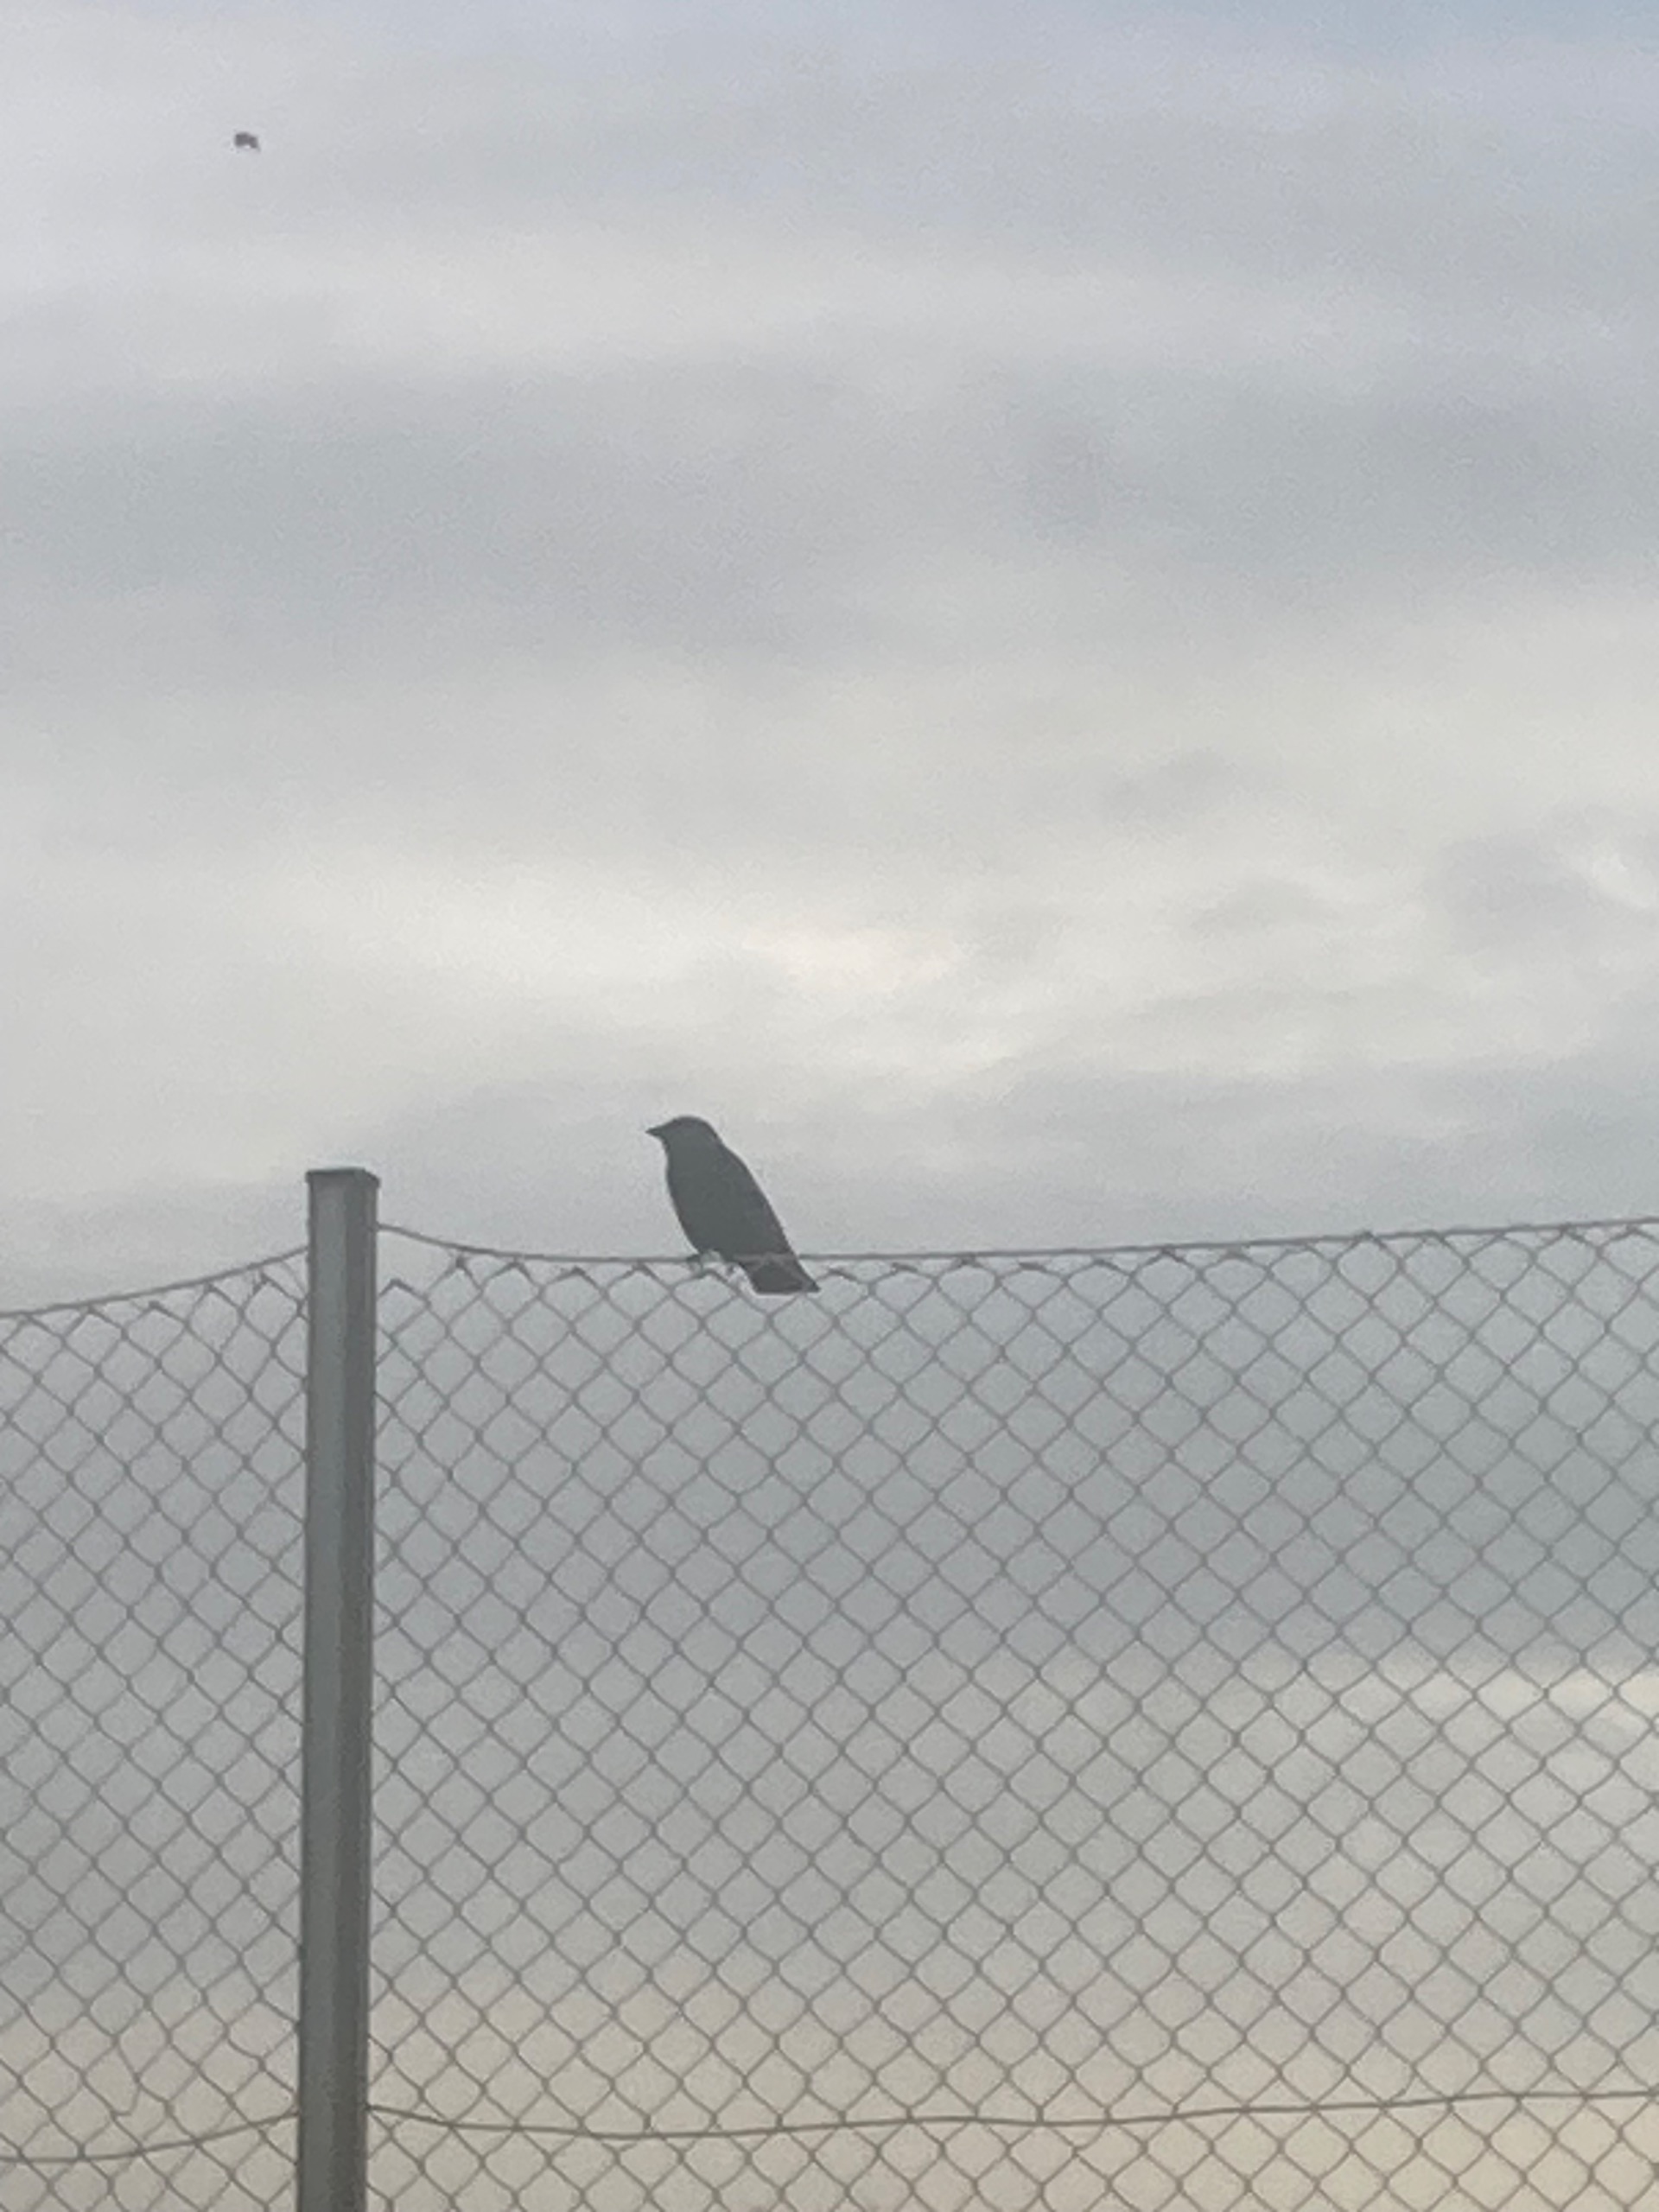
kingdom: Animalia
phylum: Chordata
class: Aves
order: Passeriformes
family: Corvidae
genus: Coloeus
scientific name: Coloeus monedula
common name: Allike
